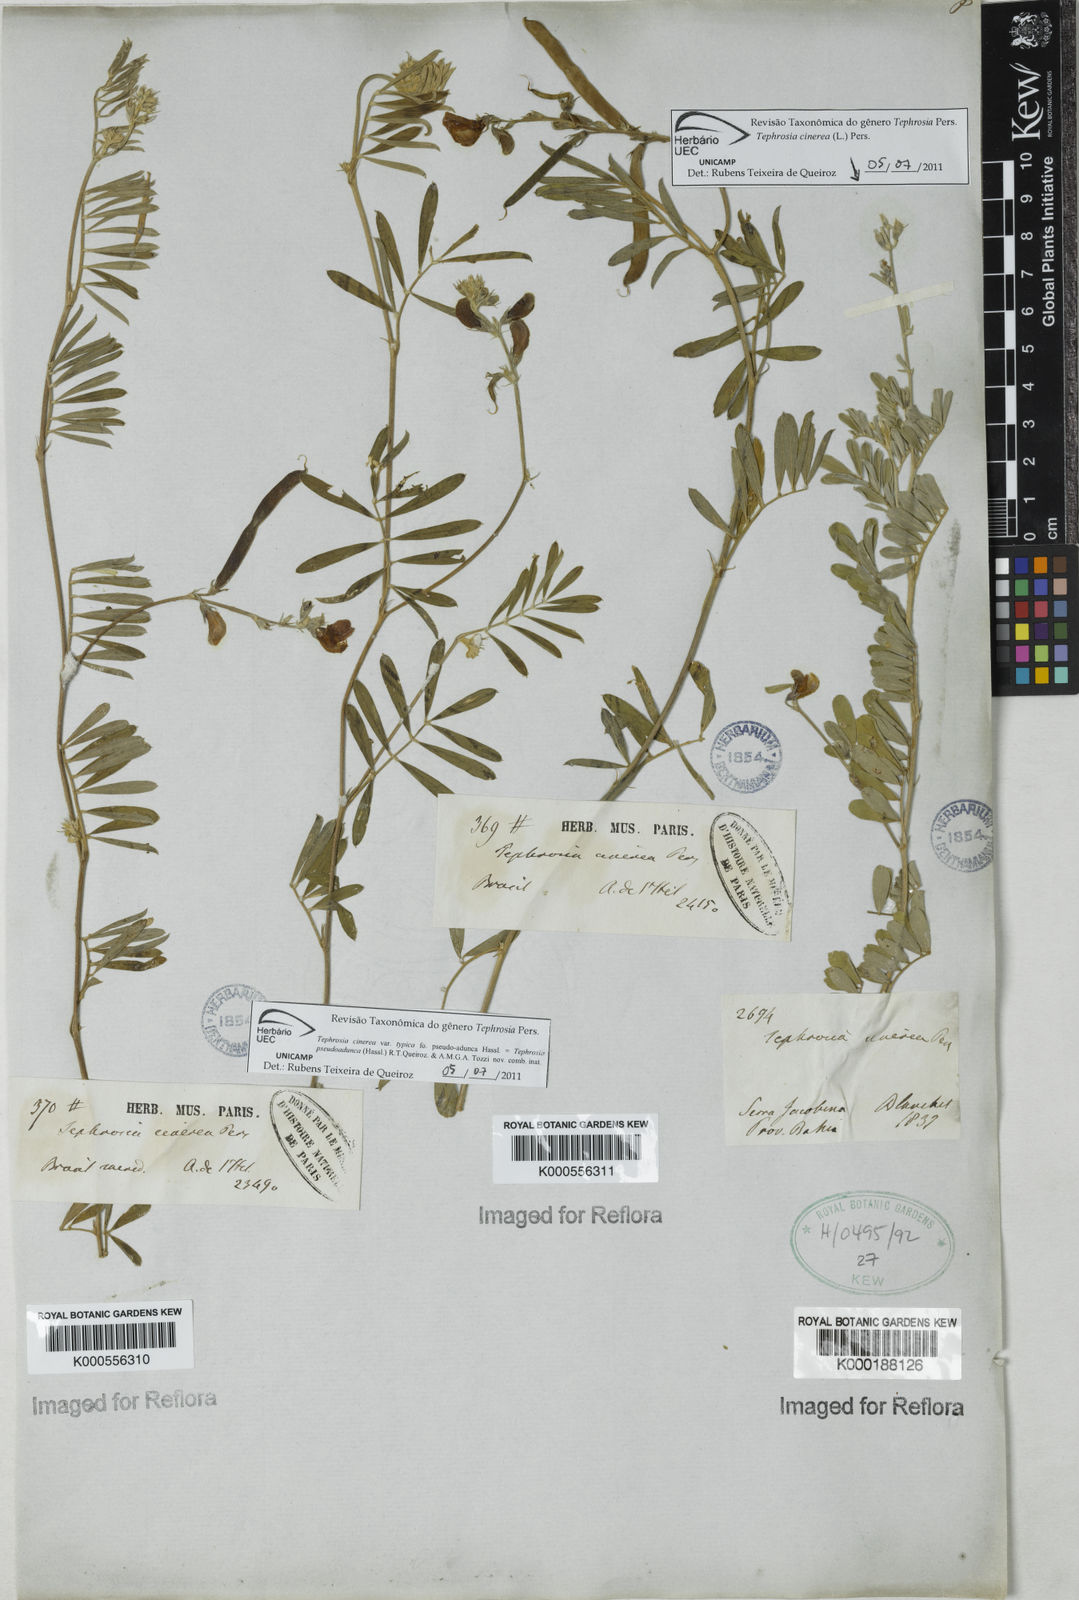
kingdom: Plantae
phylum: Tracheophyta
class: Magnoliopsida
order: Fabales
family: Fabaceae
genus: Tephrosia
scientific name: Tephrosia
